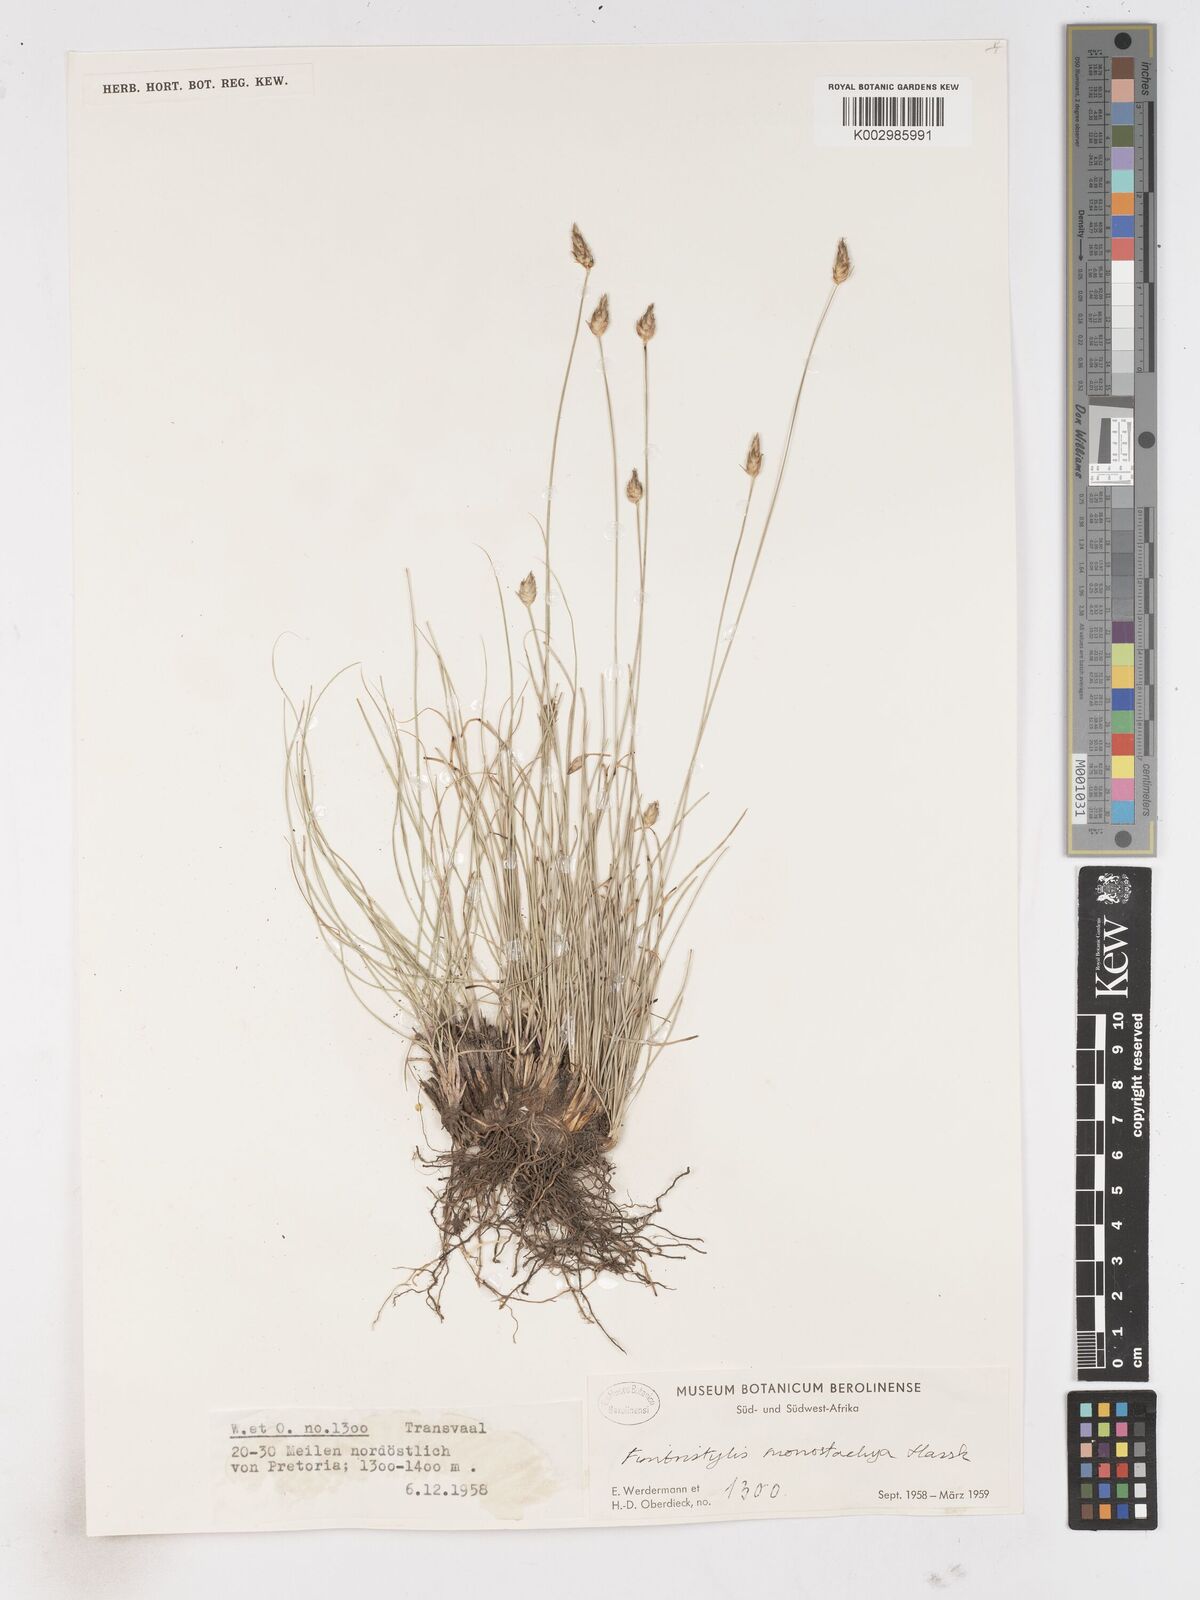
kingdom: Plantae
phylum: Tracheophyta
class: Liliopsida
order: Poales
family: Cyperaceae
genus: Abildgaardia
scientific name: Abildgaardia ovata
